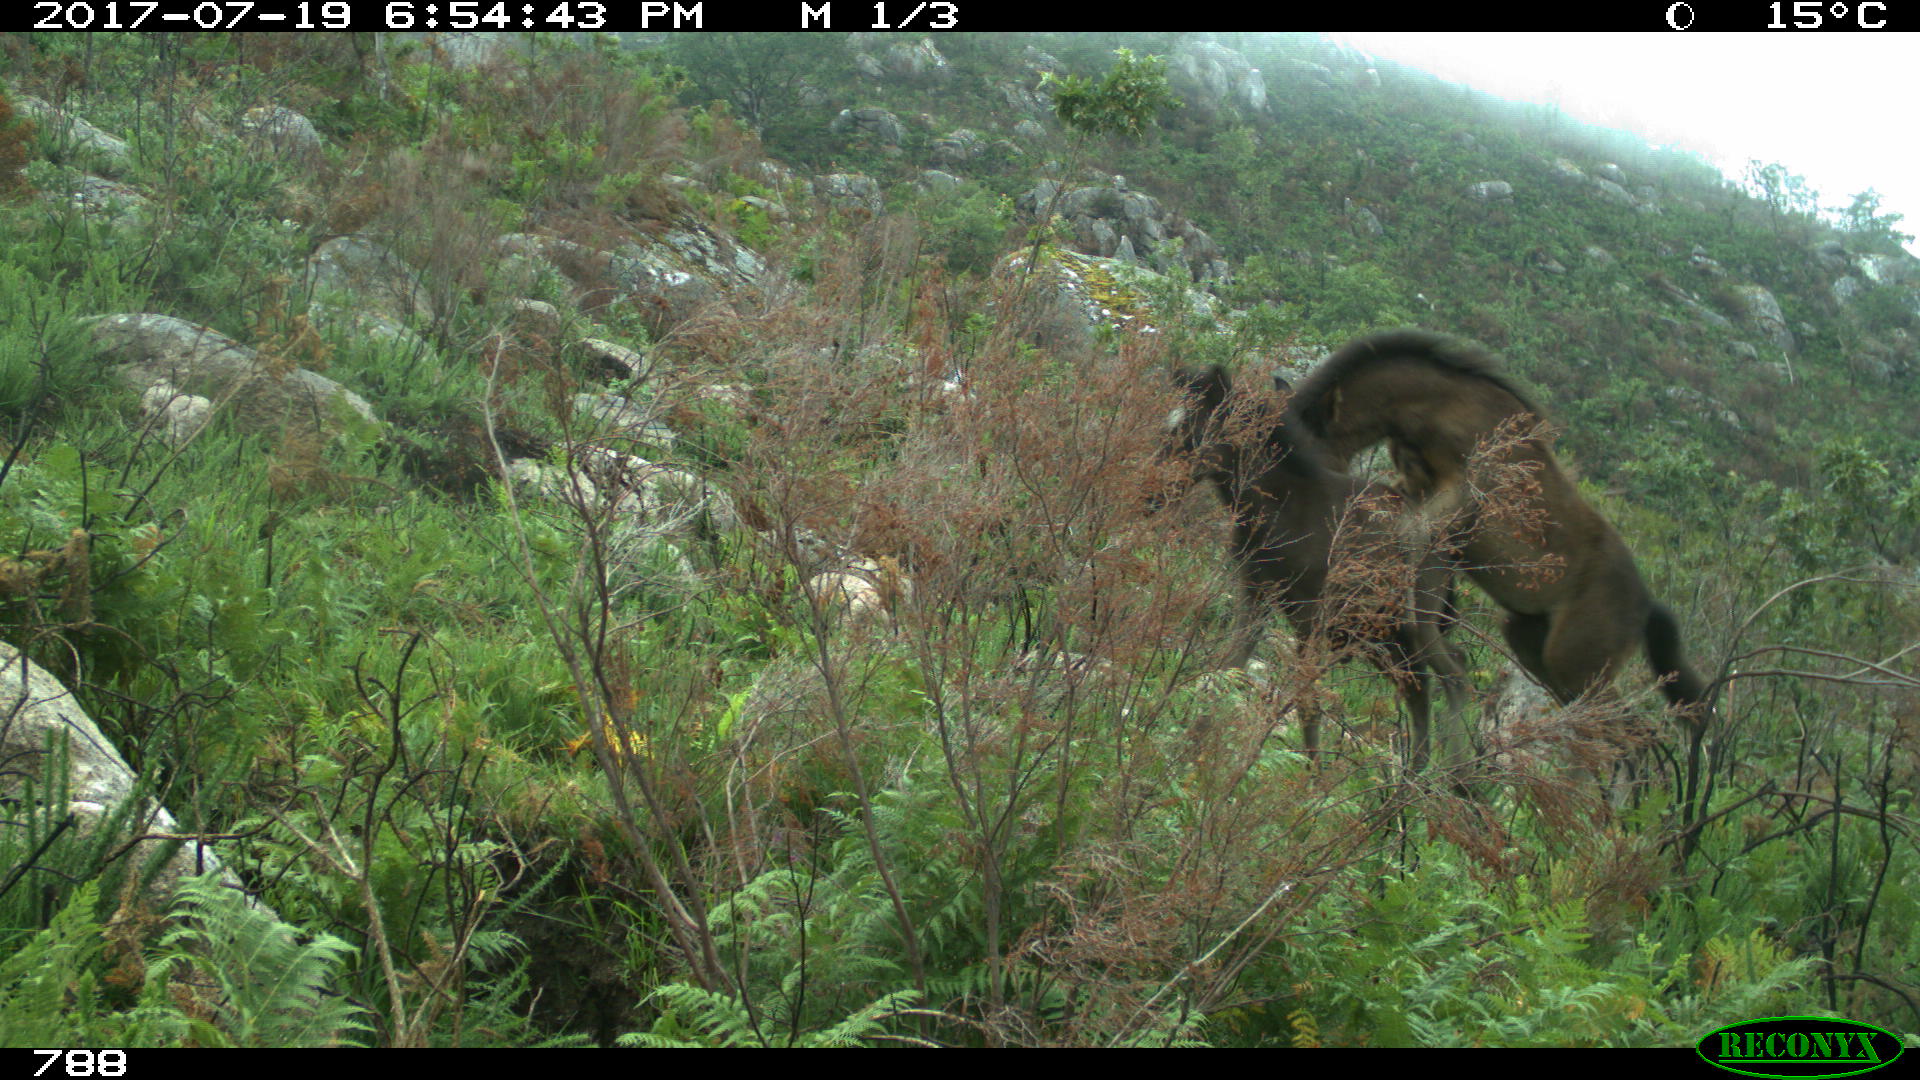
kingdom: Animalia
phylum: Chordata
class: Mammalia
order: Perissodactyla
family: Equidae
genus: Equus
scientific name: Equus caballus
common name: Horse
